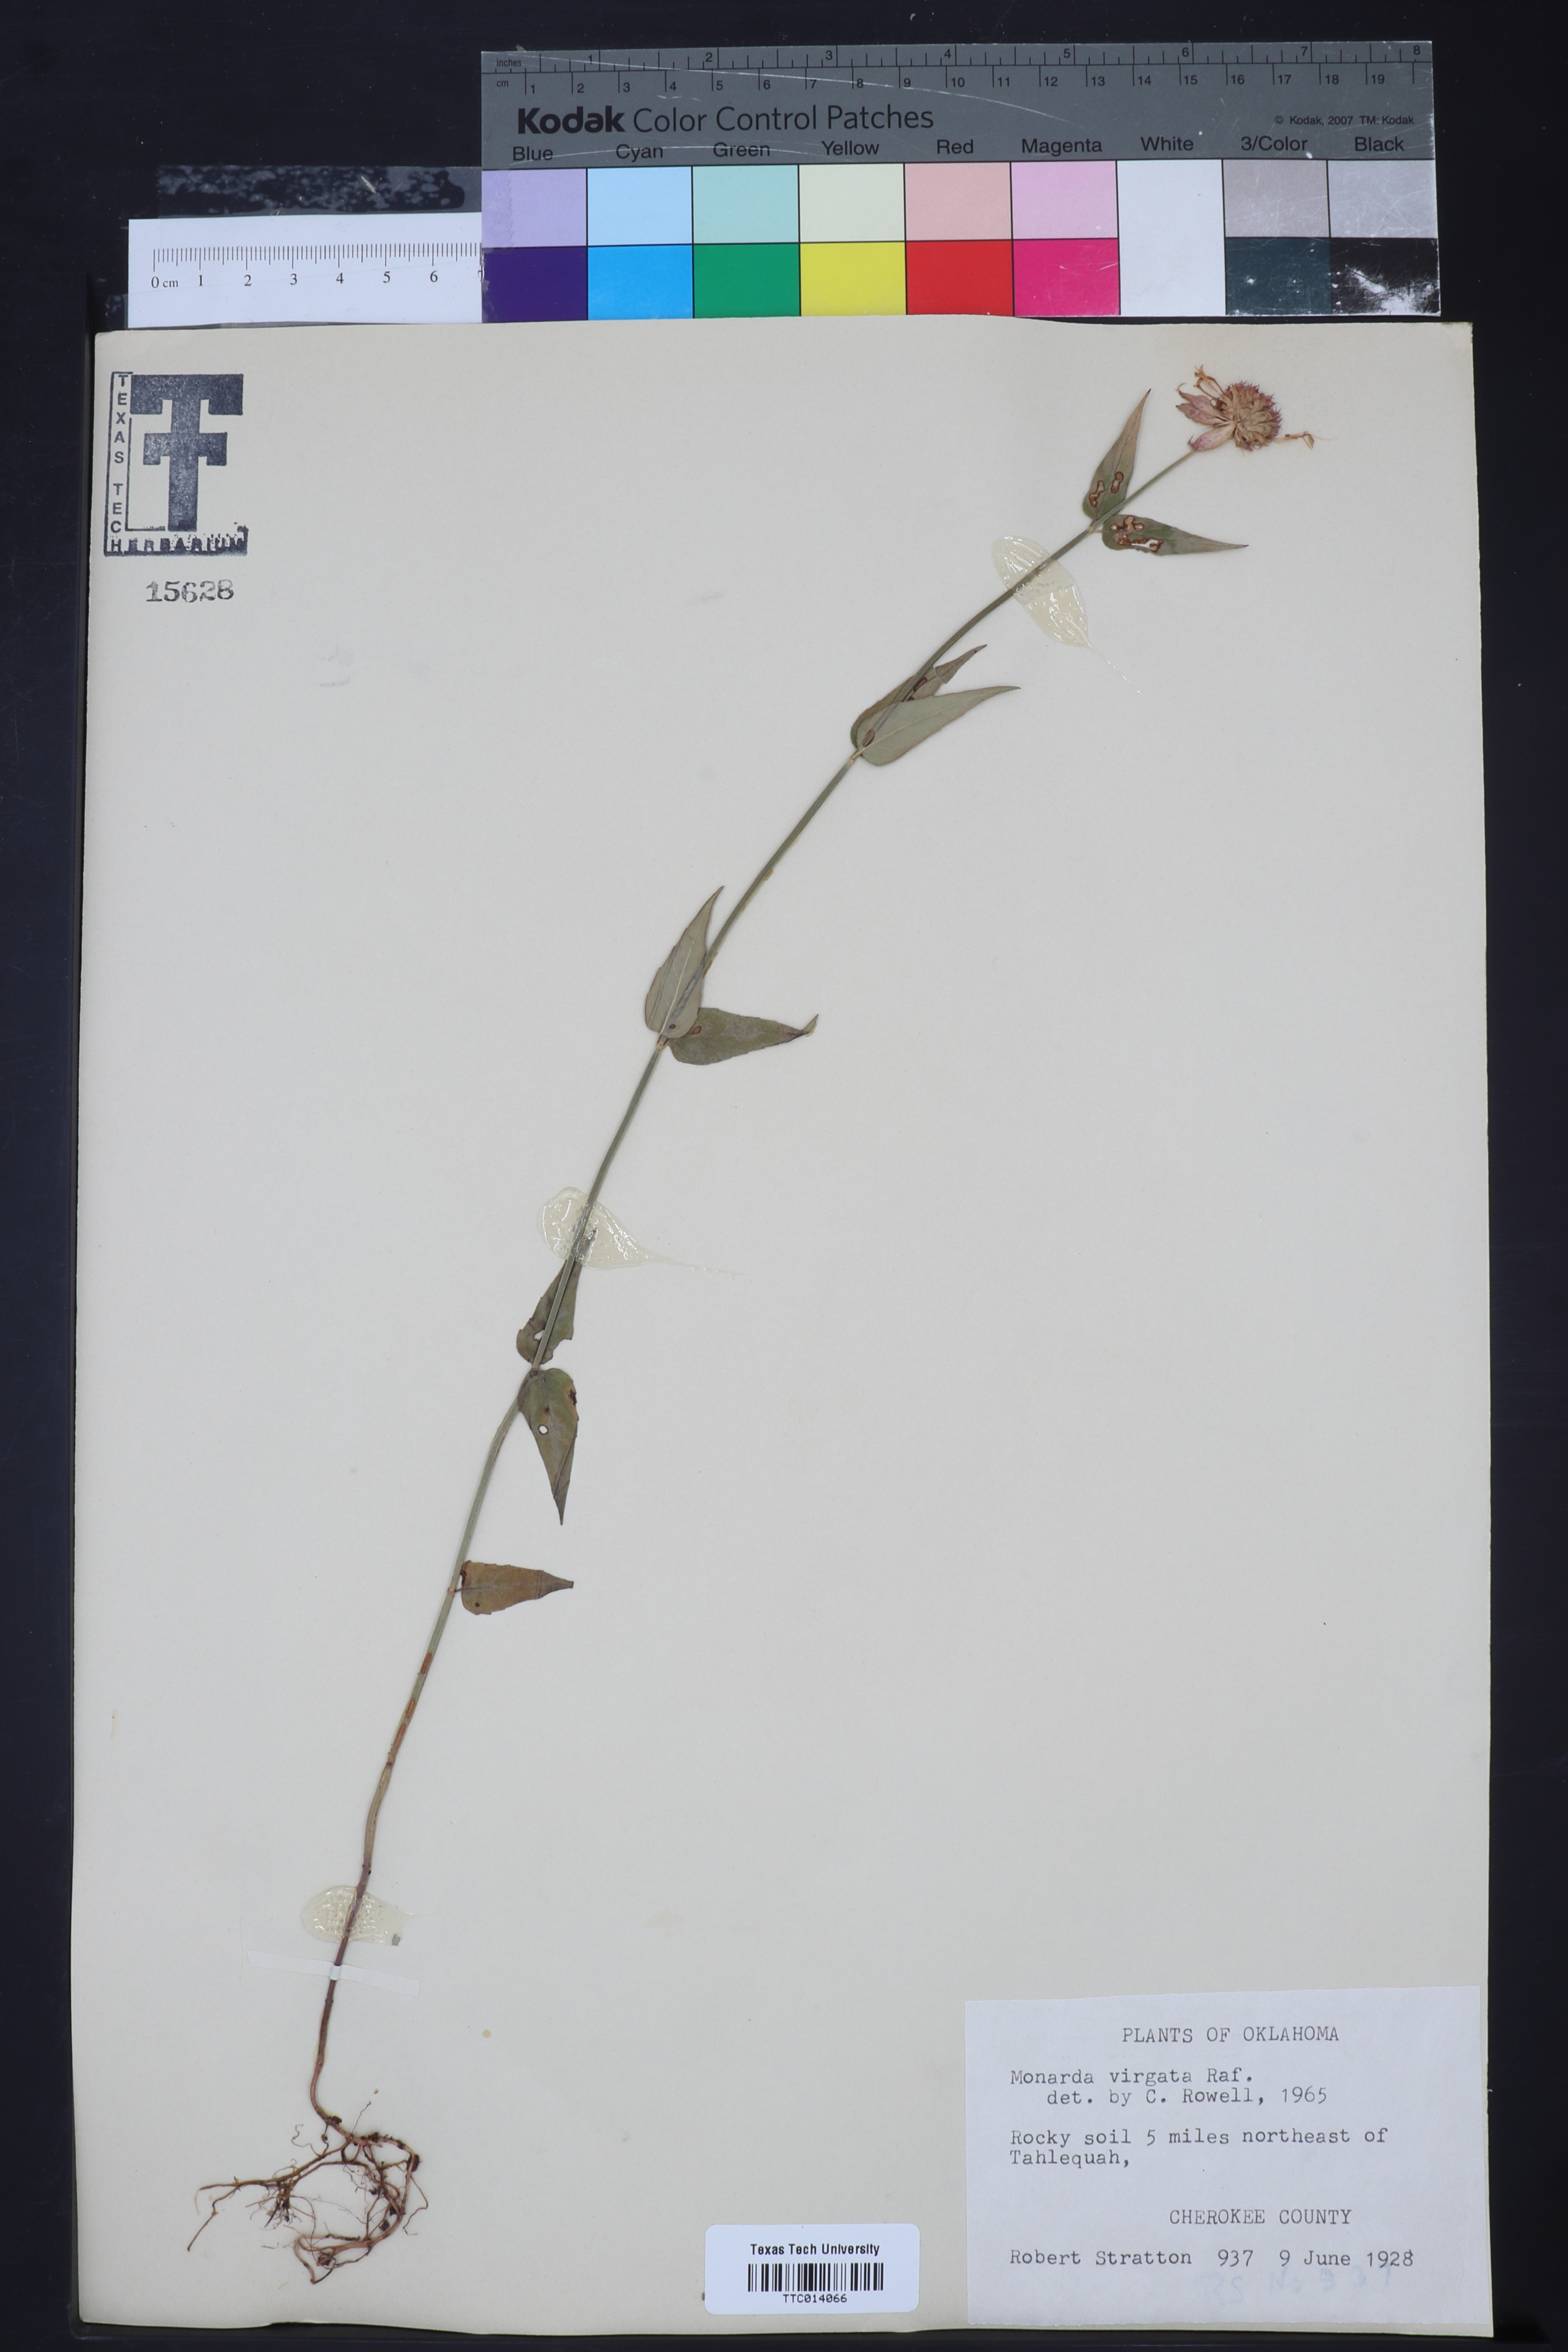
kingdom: Plantae
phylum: Tracheophyta
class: Magnoliopsida
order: Lamiales
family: Lamiaceae
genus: Monarda
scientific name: Monarda russeliana
